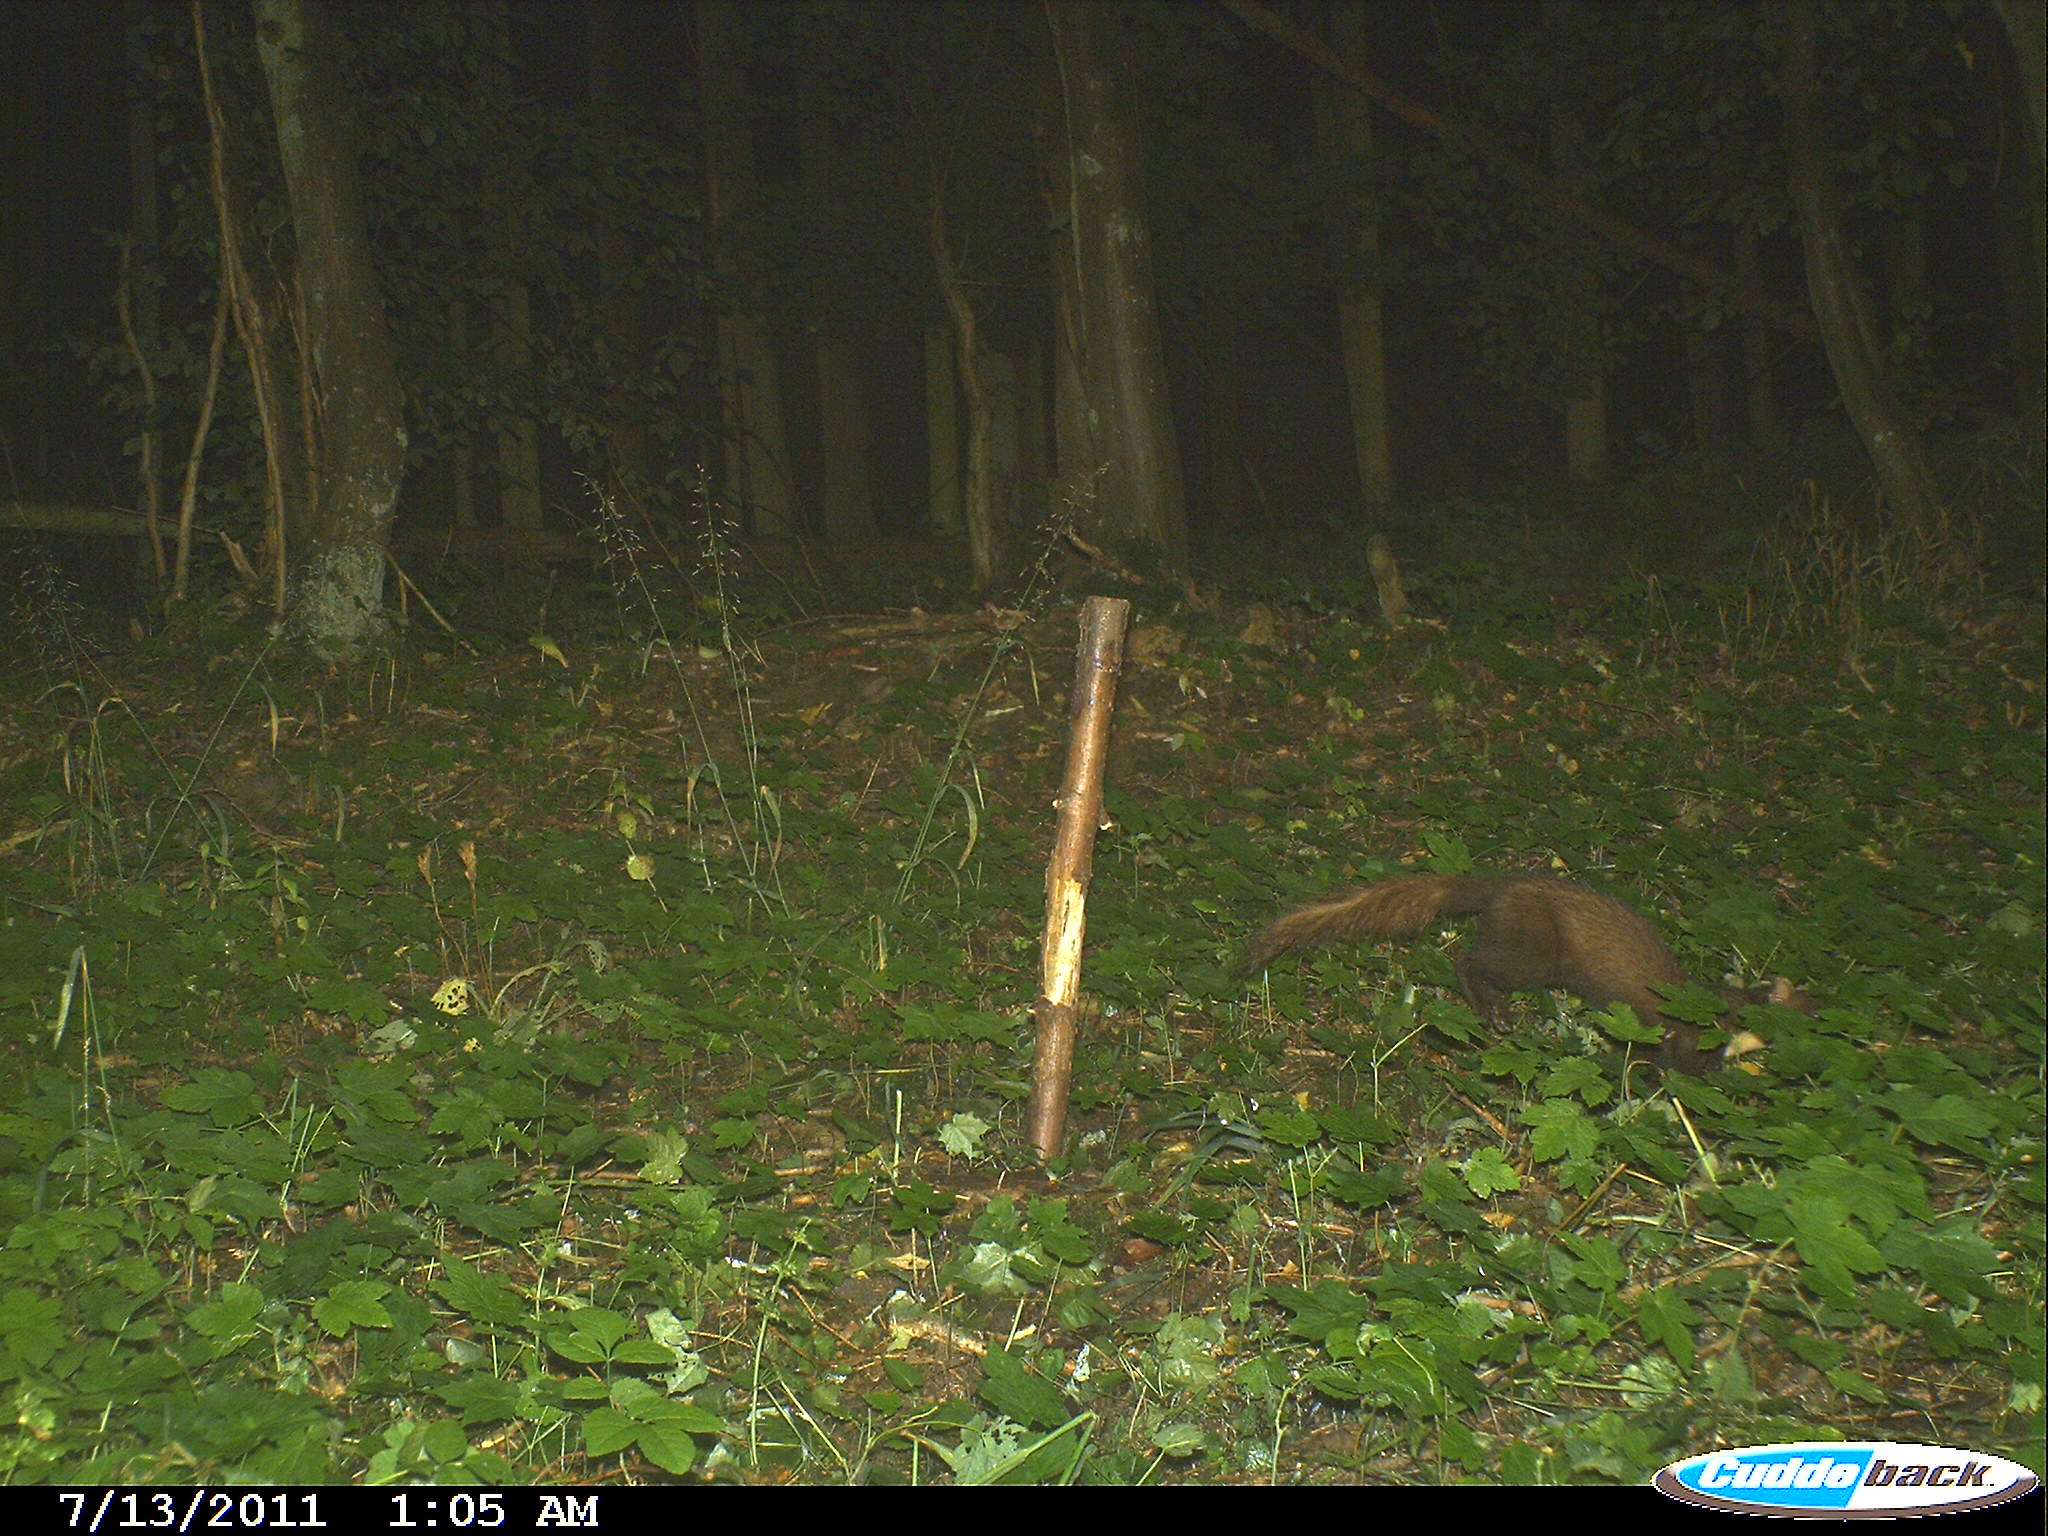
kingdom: Animalia
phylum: Chordata
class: Mammalia
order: Carnivora
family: Mustelidae
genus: Martes
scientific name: Martes martes
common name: European pine marten
